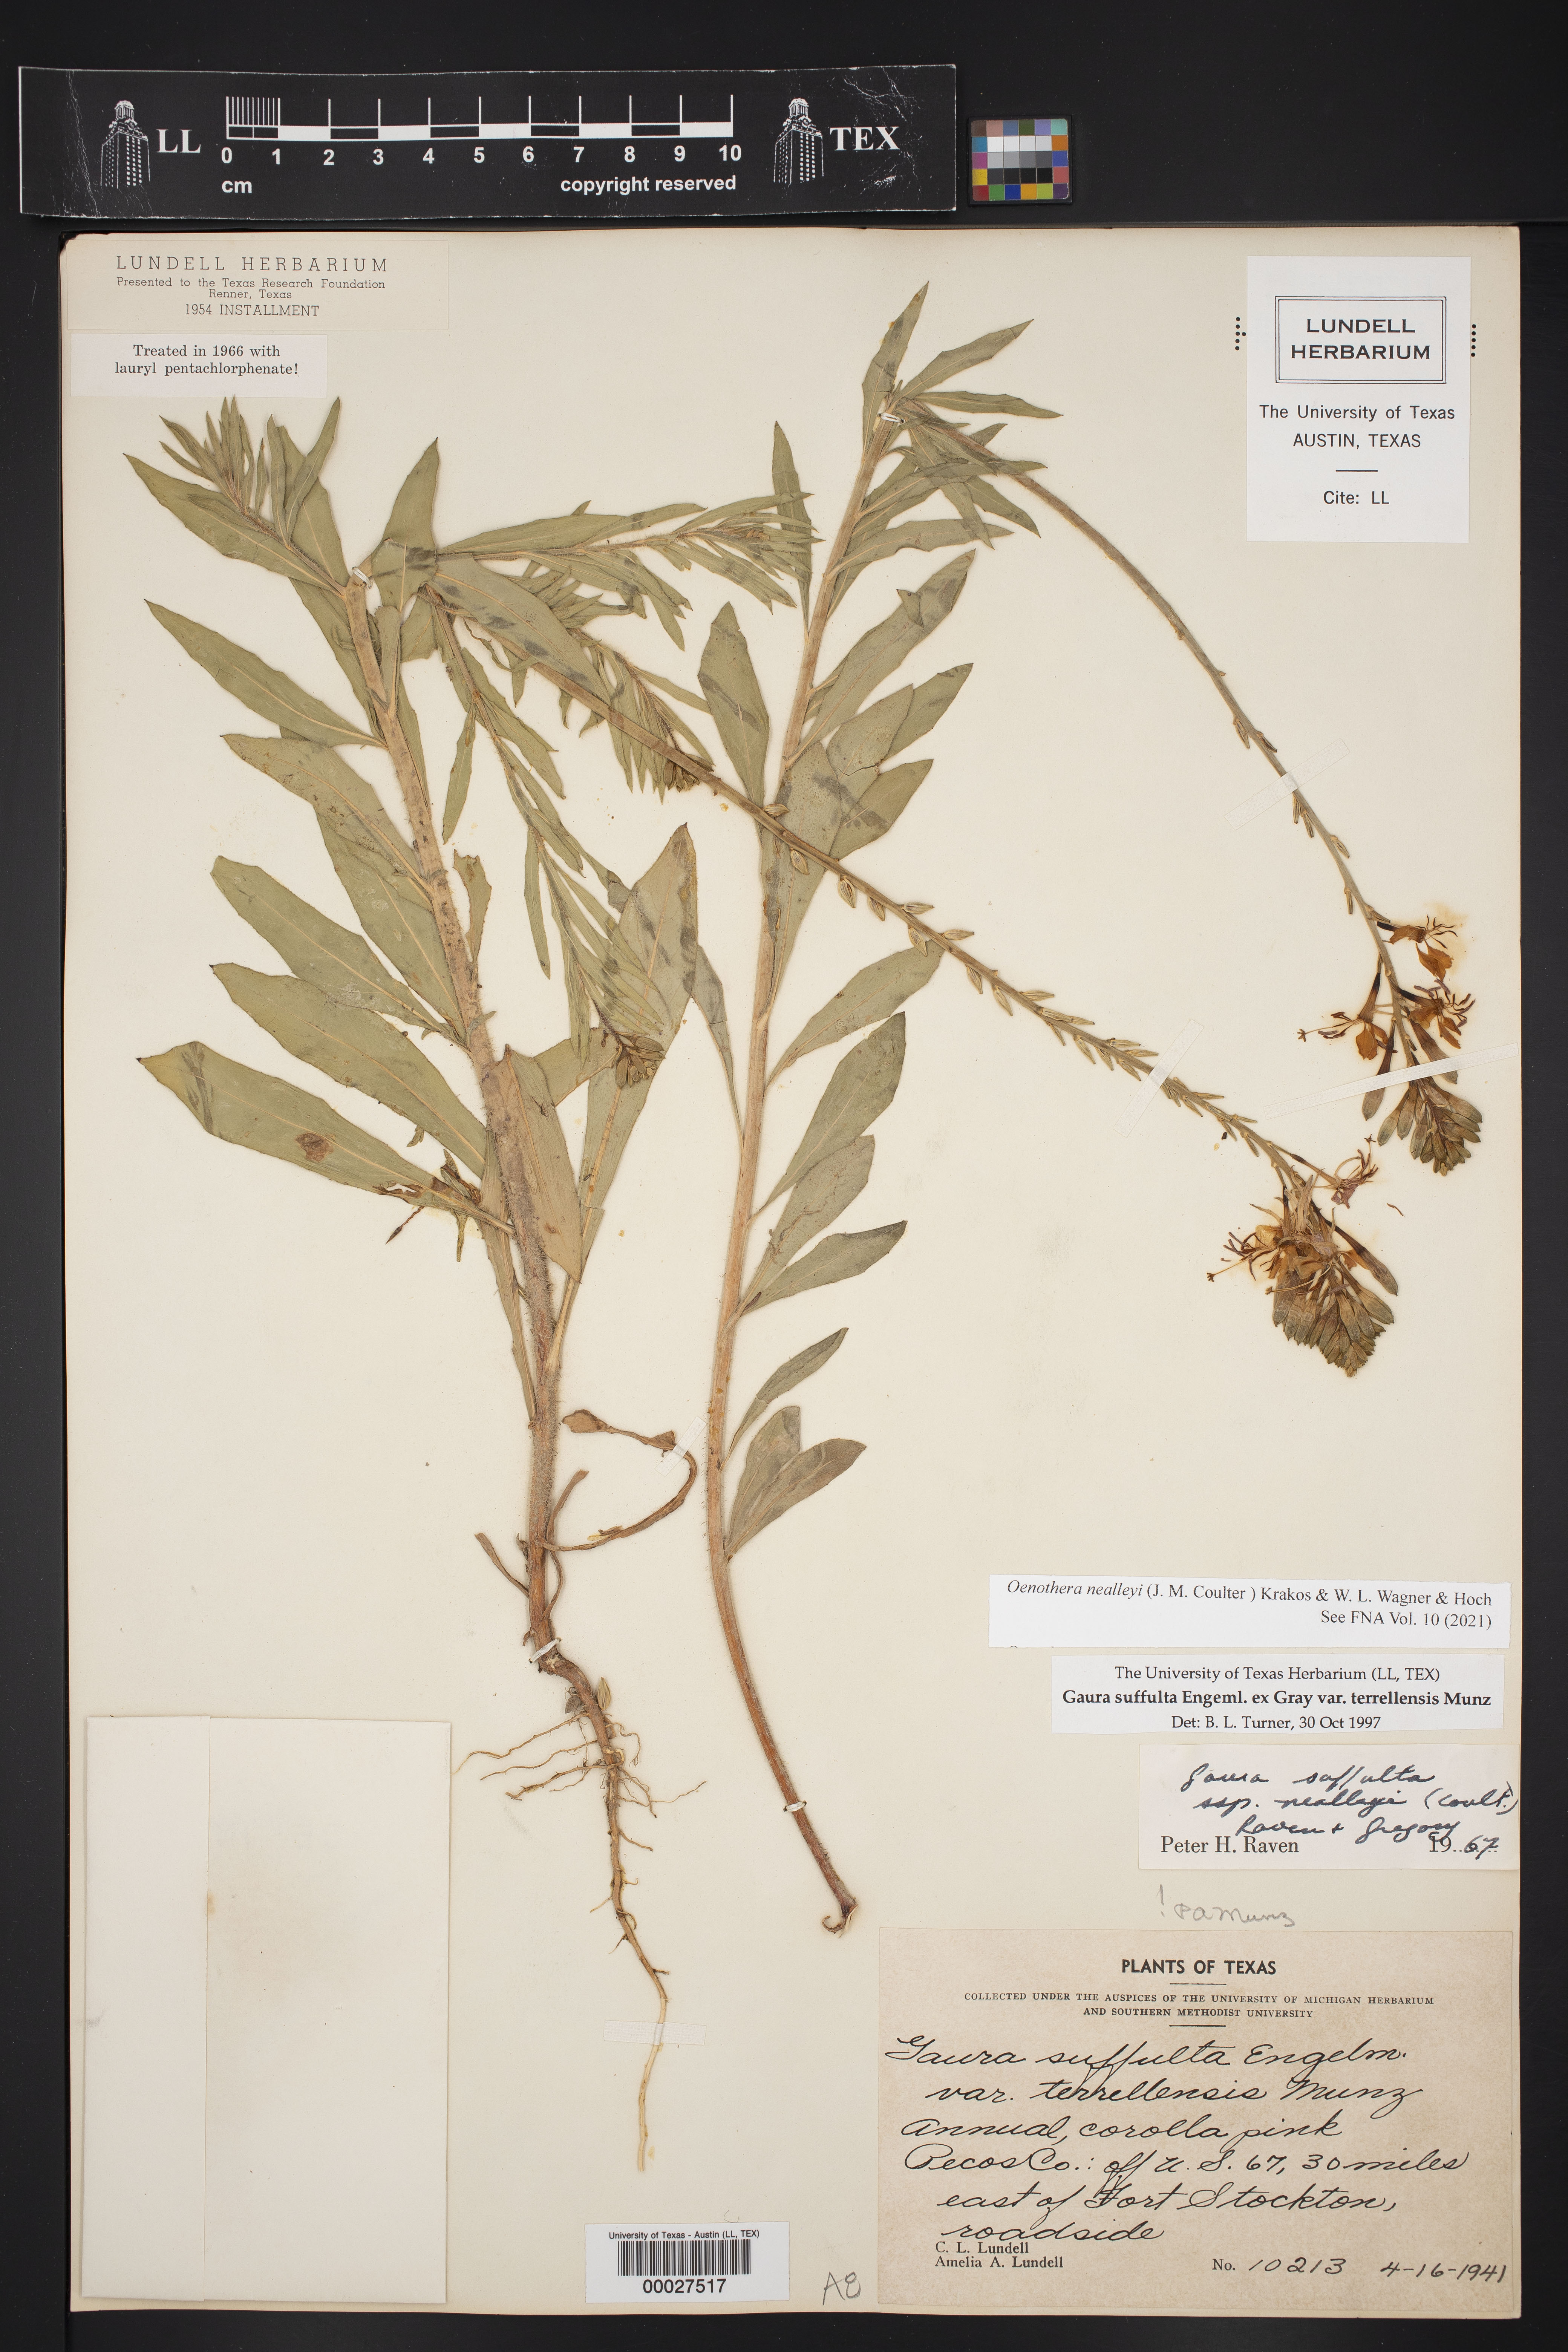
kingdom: Plantae
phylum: Tracheophyta
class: Magnoliopsida
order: Myrtales
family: Onagraceae
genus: Oenothera
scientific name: Oenothera suffulta
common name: Kisses
